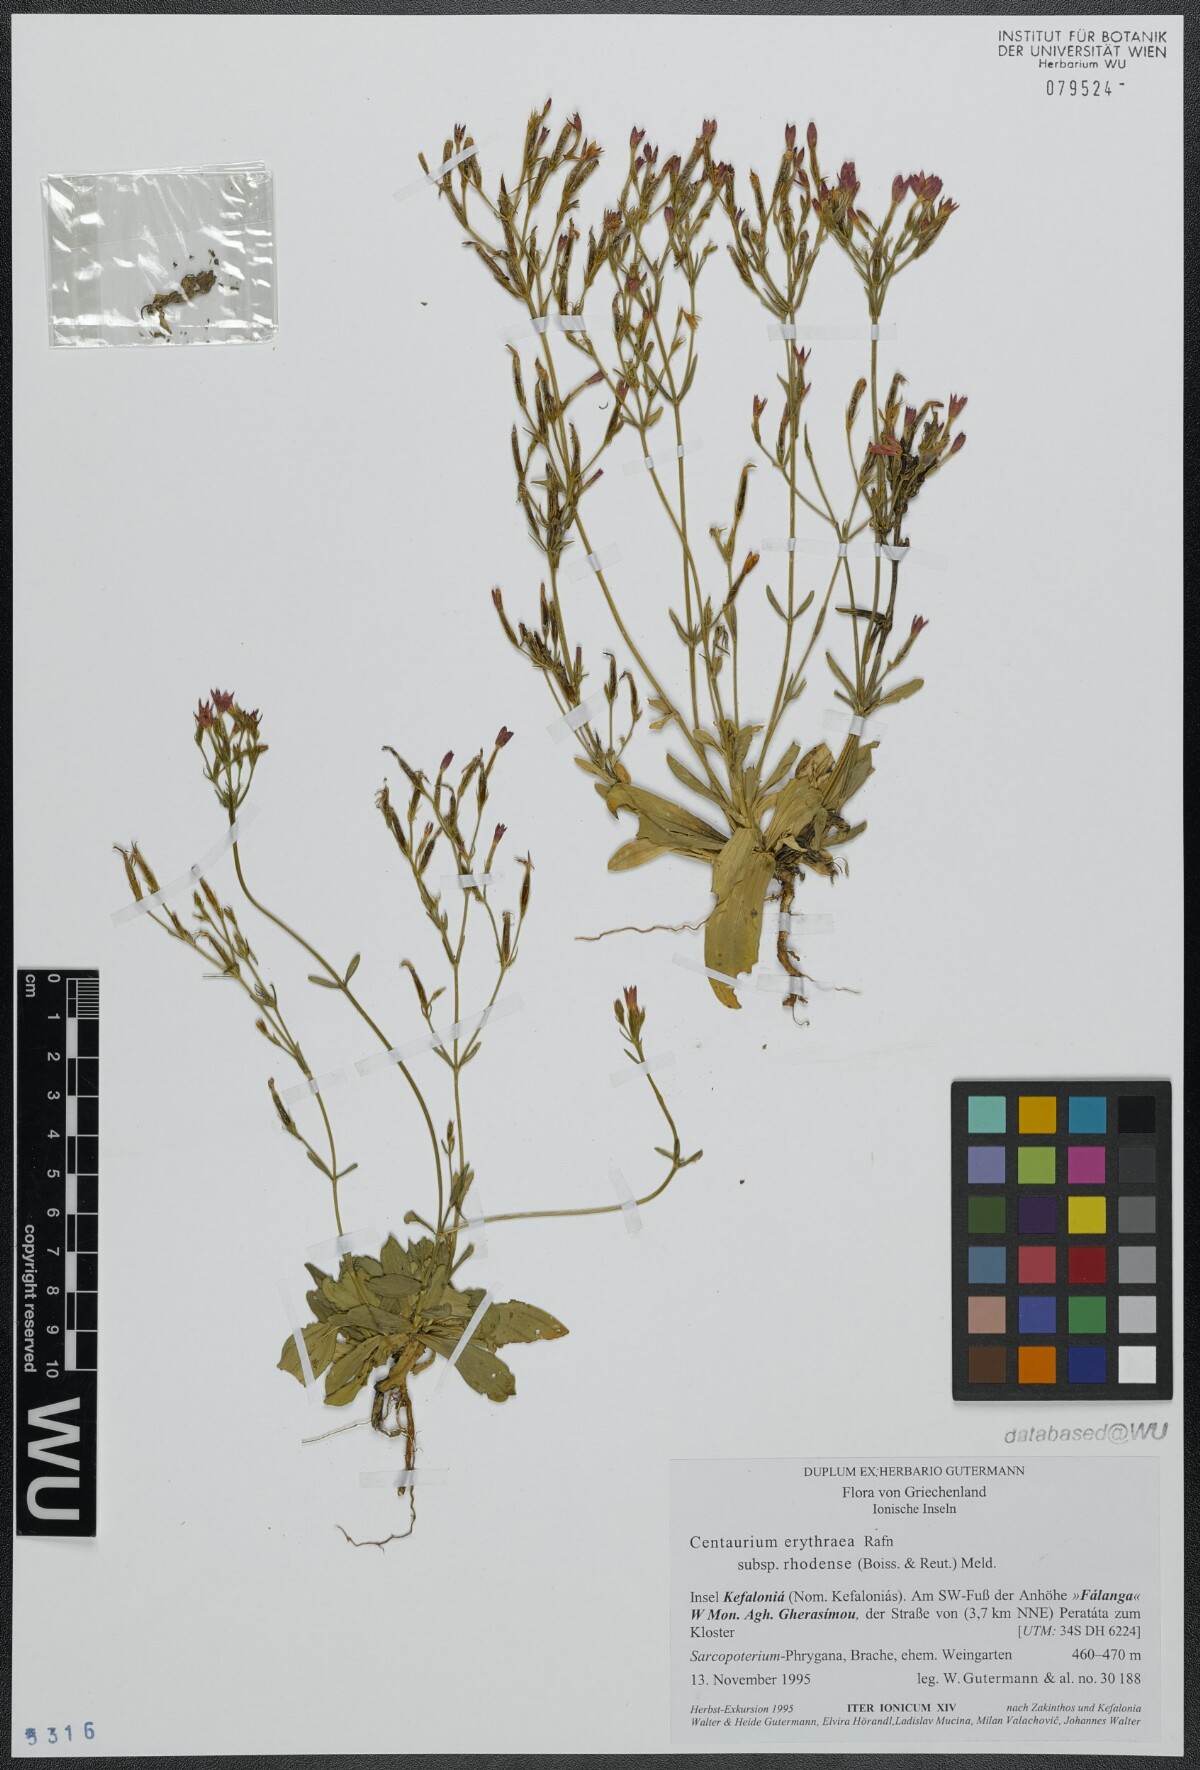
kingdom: Plantae
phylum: Tracheophyta
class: Magnoliopsida
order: Gentianales
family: Gentianaceae
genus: Centaurium
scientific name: Centaurium erythraea
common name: Common centaury
